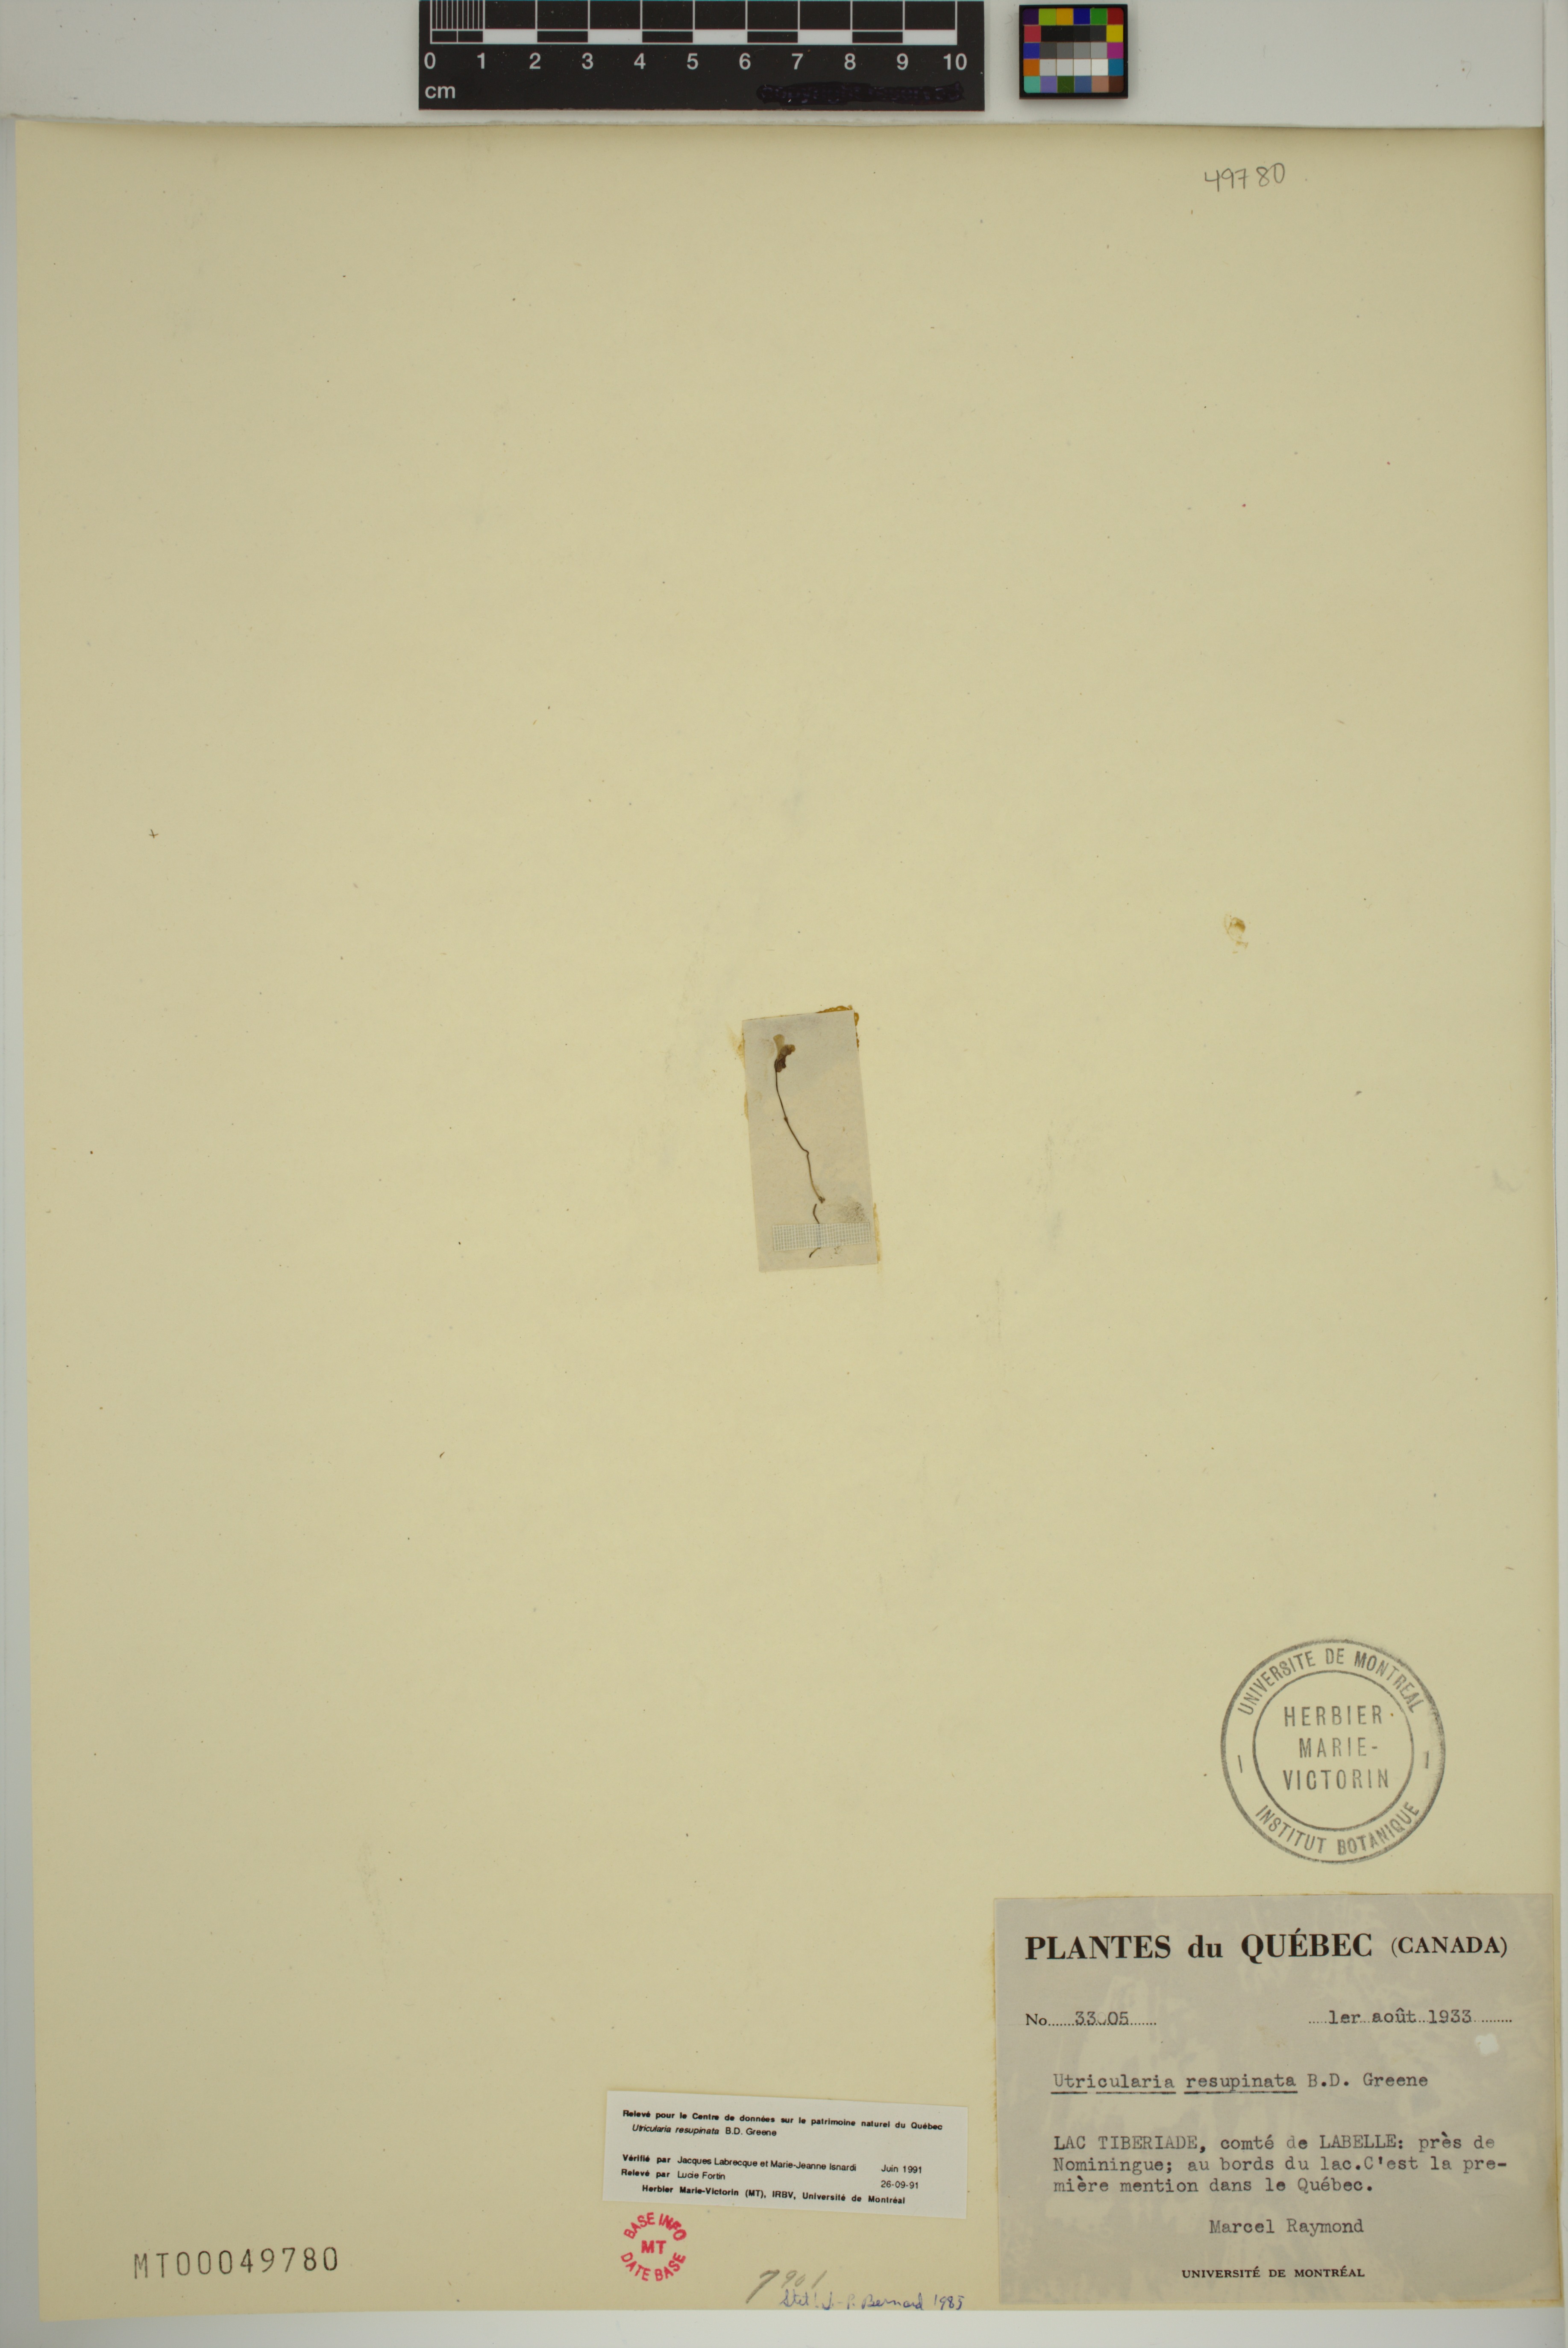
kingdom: Plantae
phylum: Tracheophyta
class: Magnoliopsida
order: Lamiales
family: Lentibulariaceae
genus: Utricularia
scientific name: Utricularia resupinata
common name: Northeastern bladderwort
